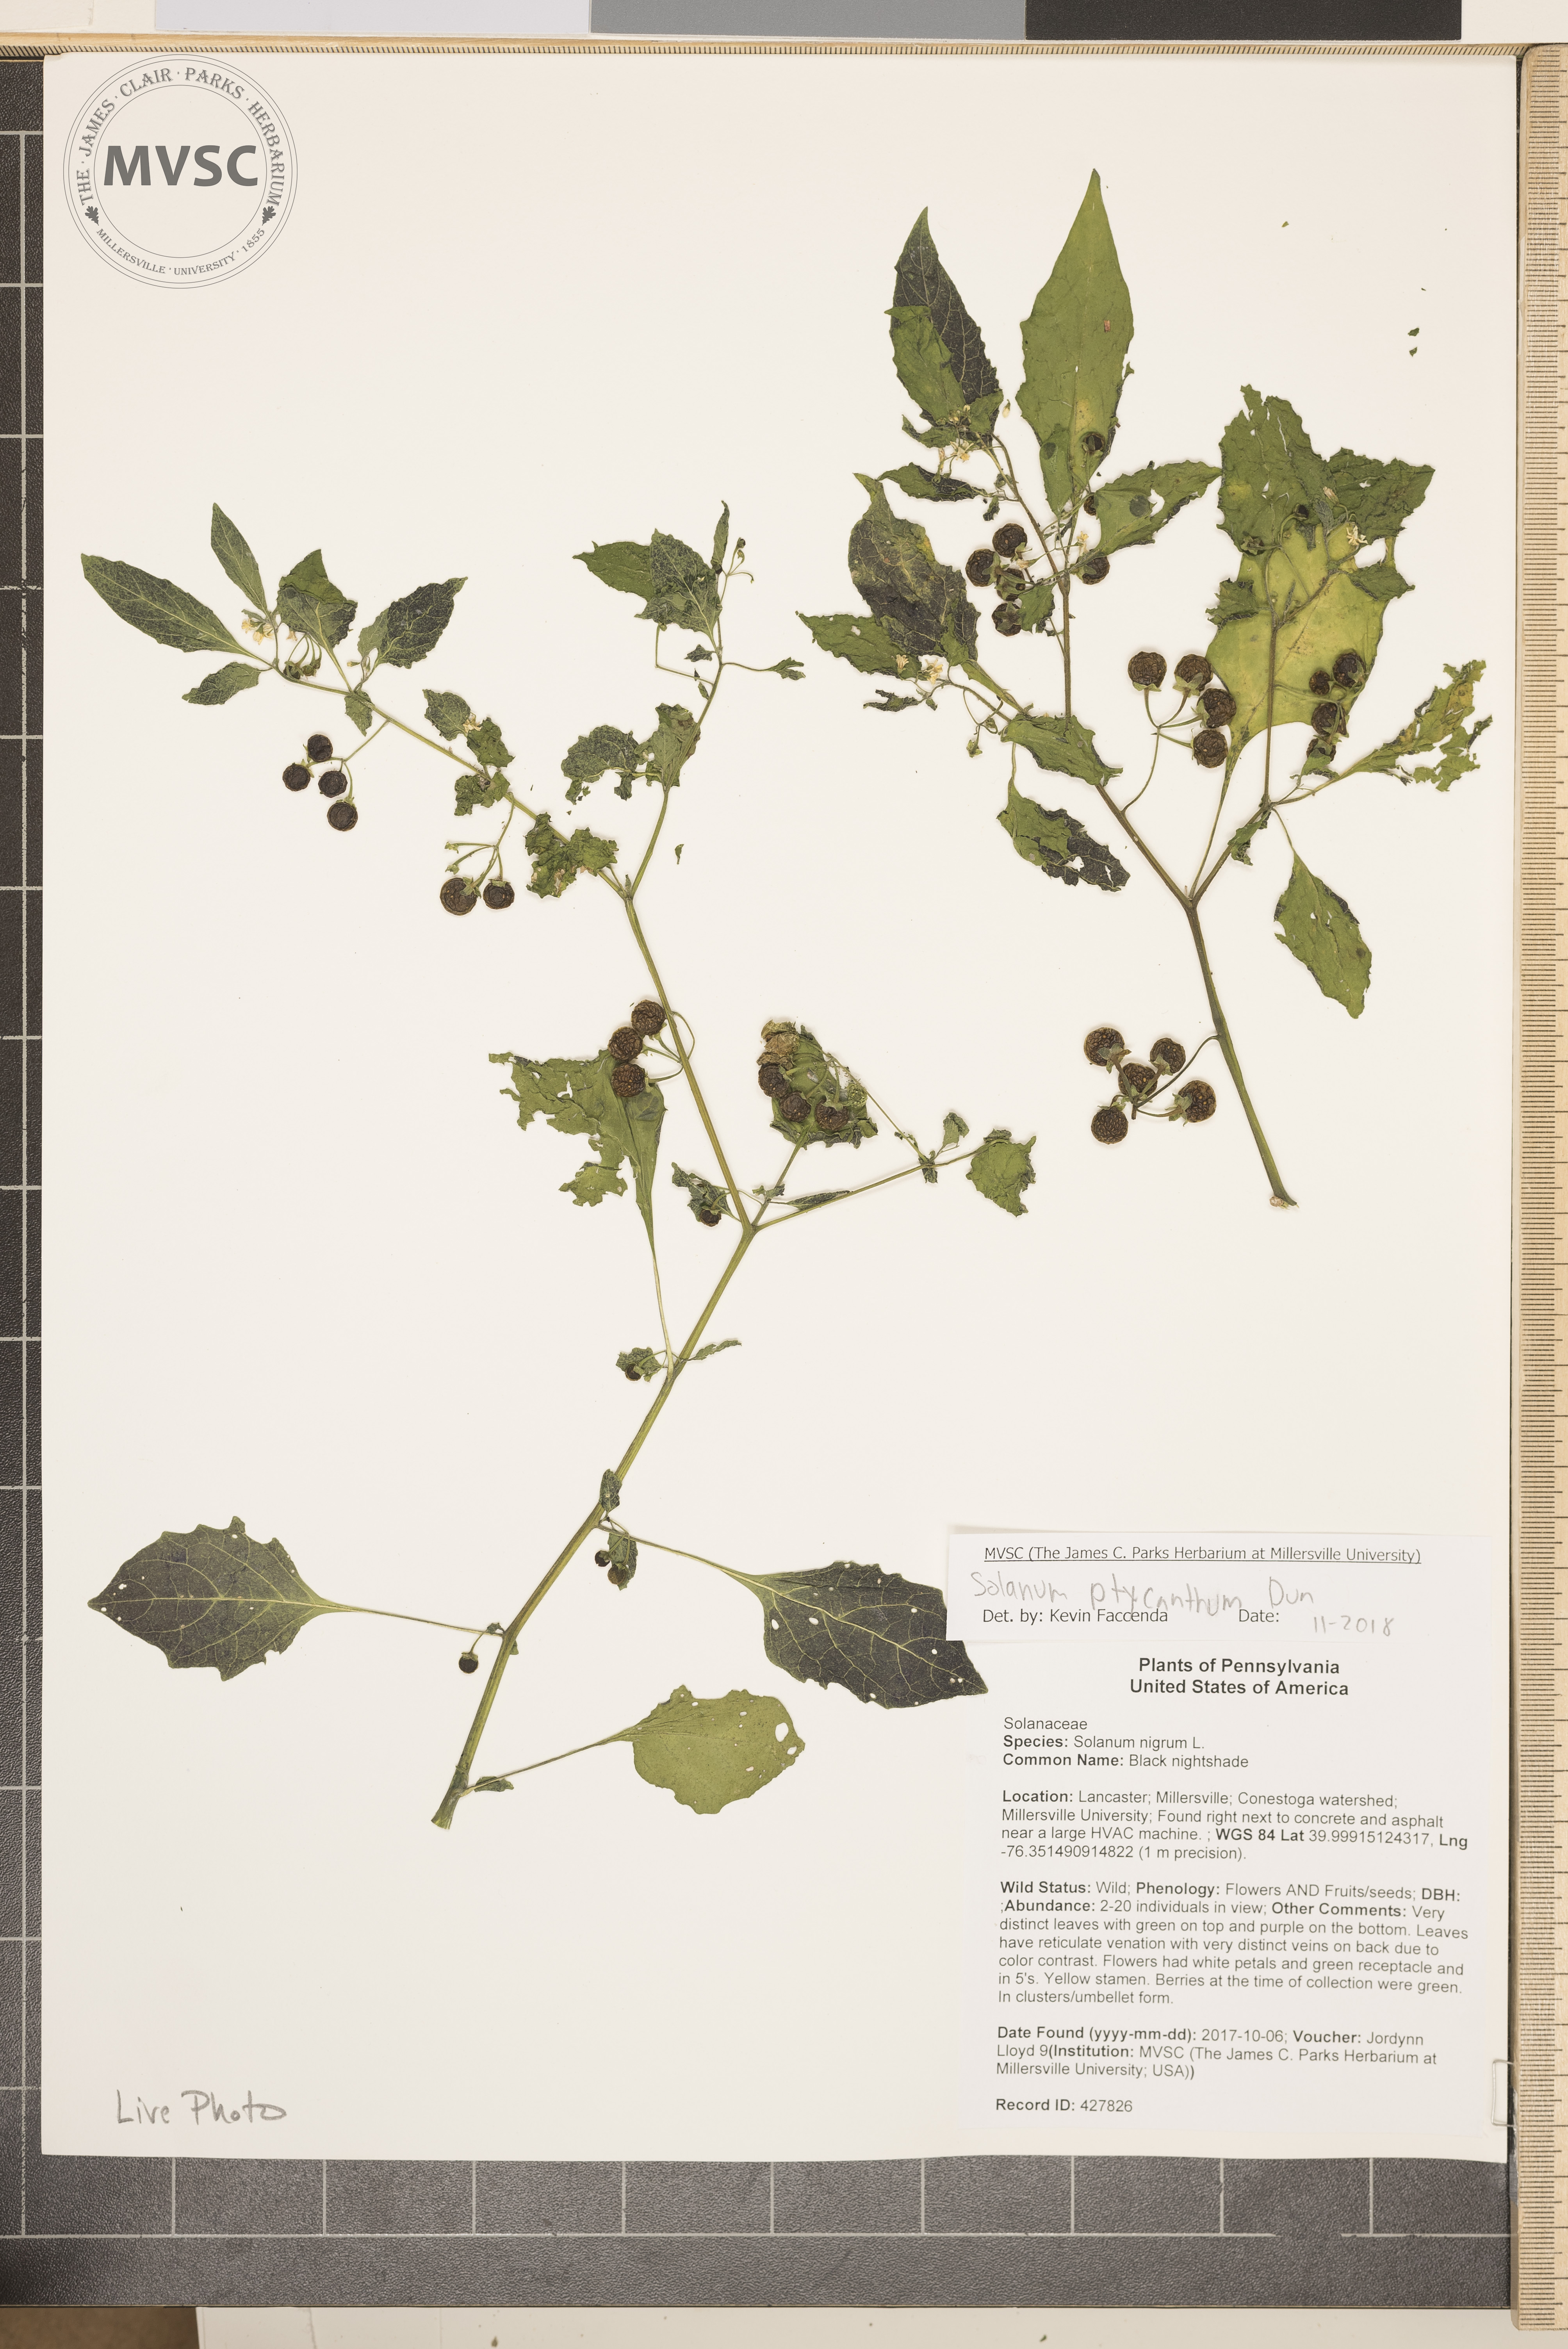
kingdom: Plantae
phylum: Tracheophyta
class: Magnoliopsida
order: Solanales
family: Solanaceae
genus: Solanum
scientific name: Solanum americanum
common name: Black nightshade
